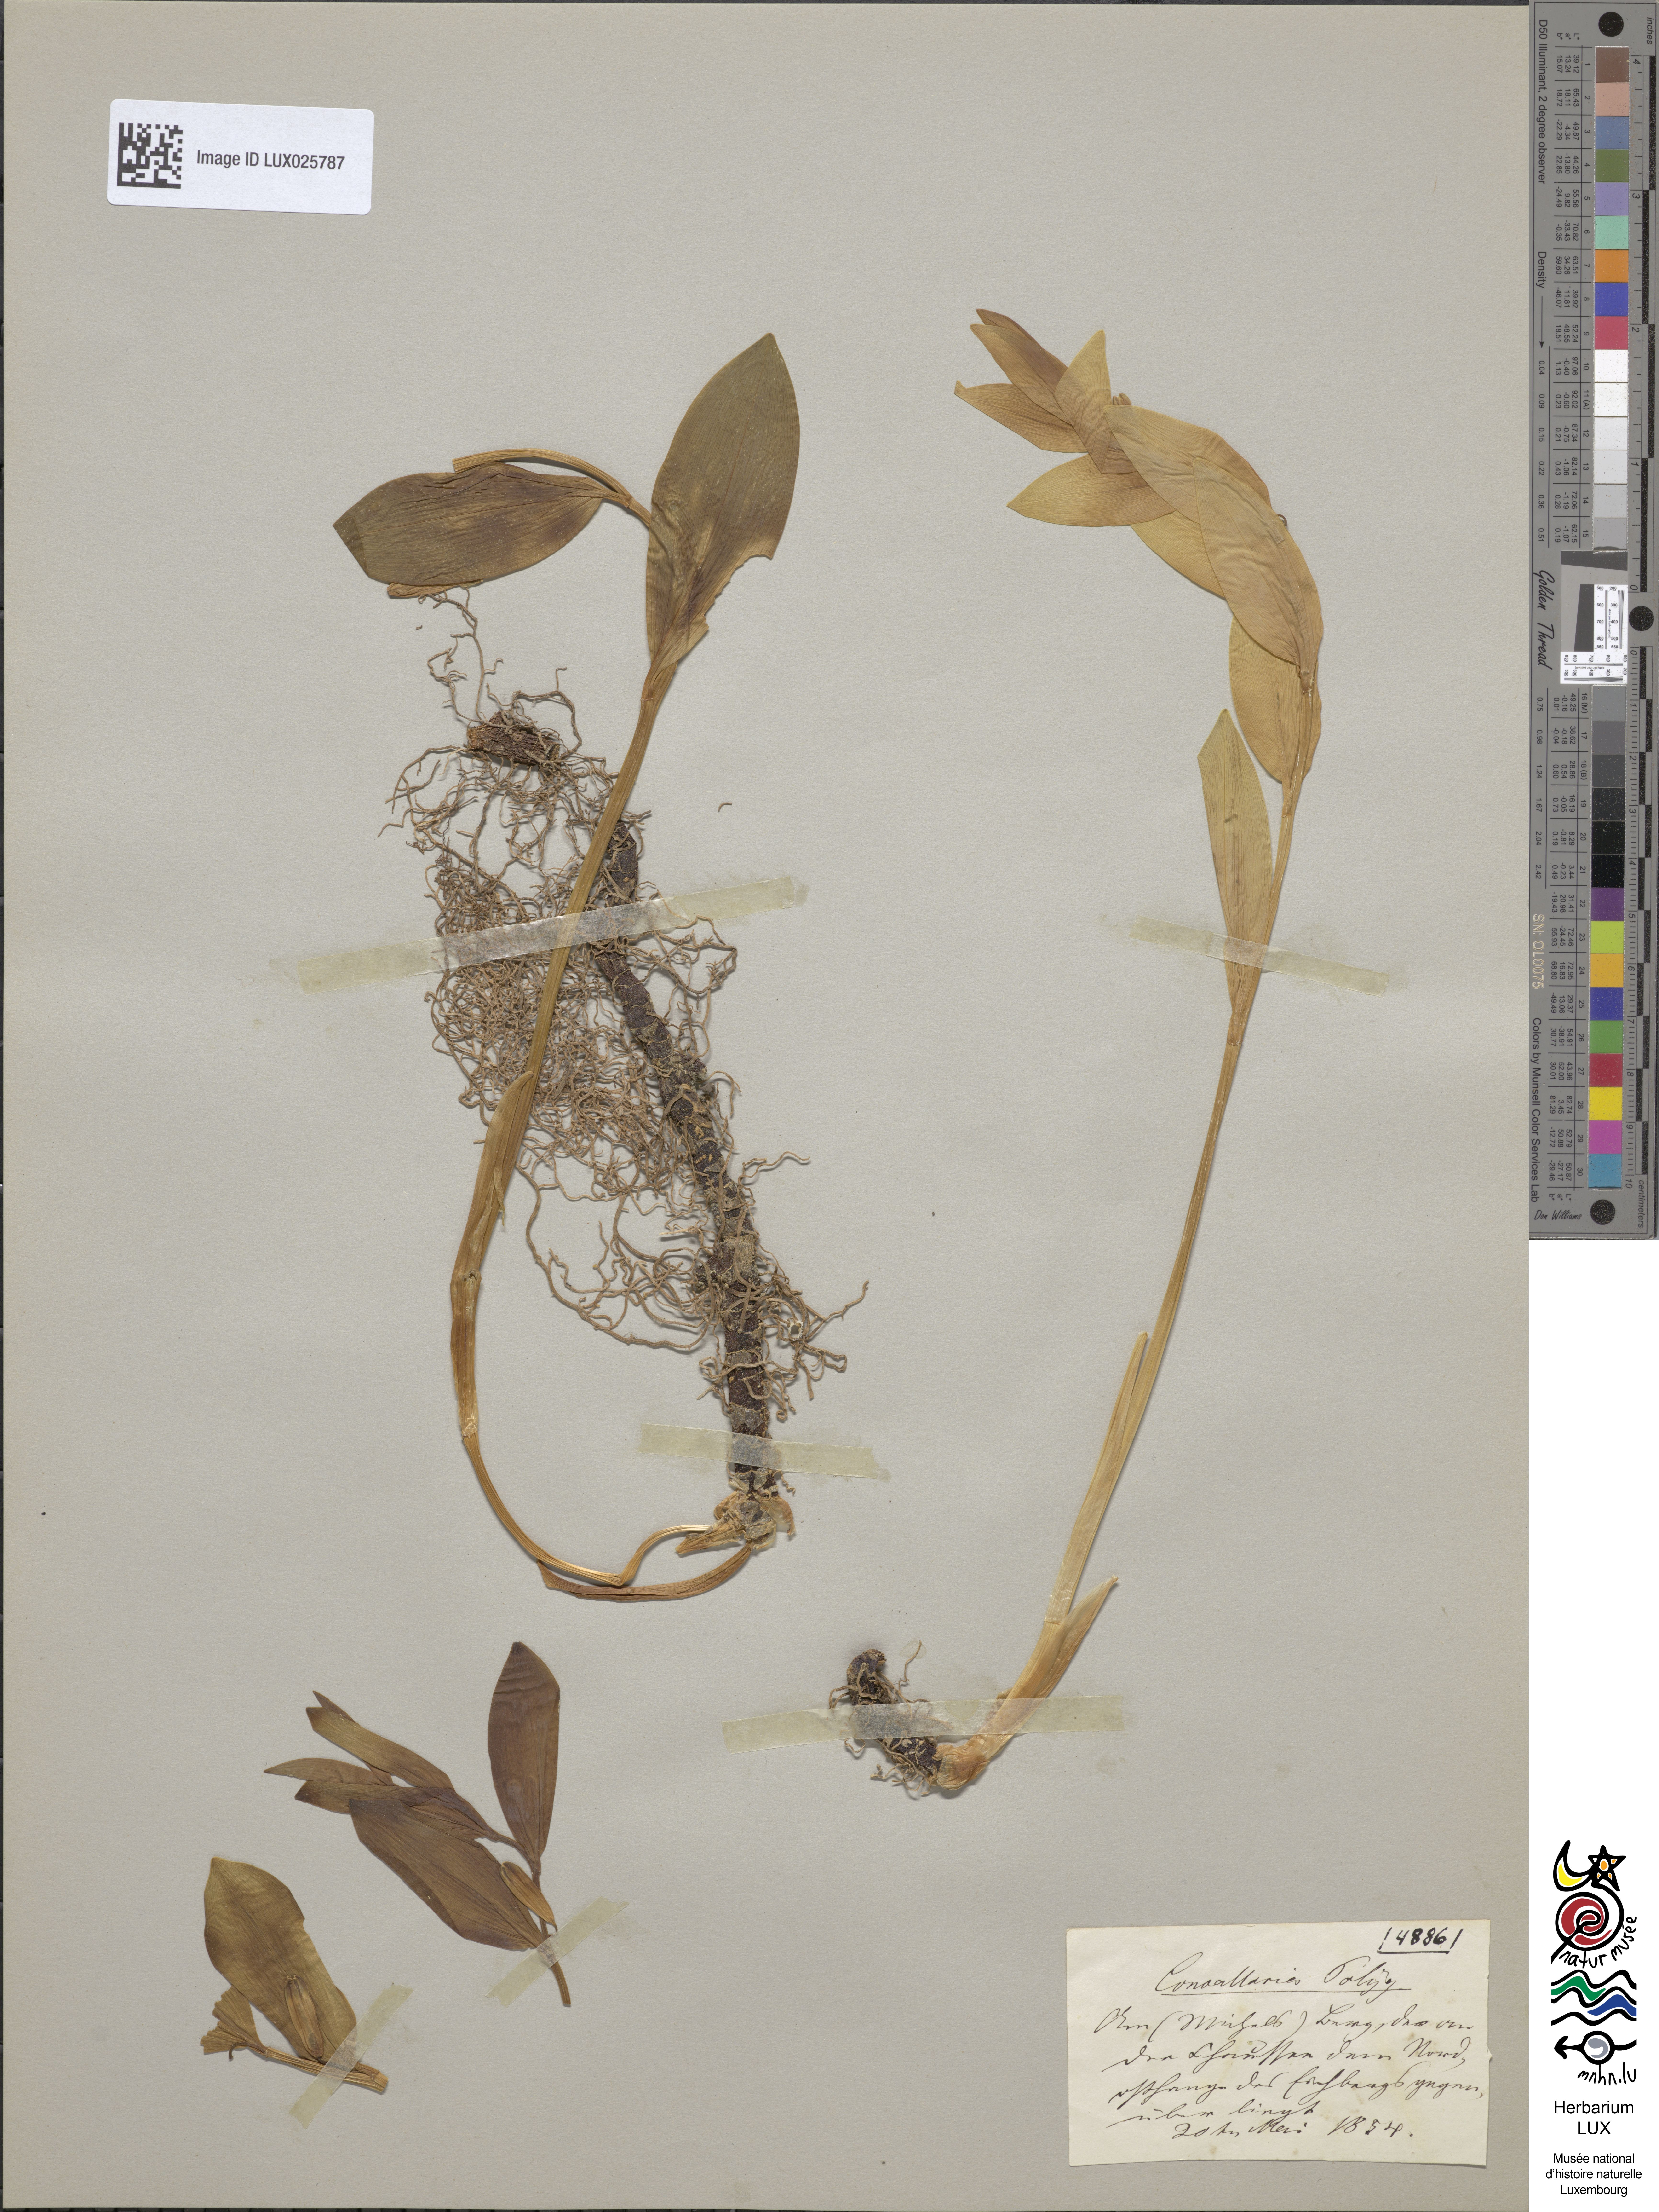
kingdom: Plantae
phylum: Tracheophyta
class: Liliopsida
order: Asparagales
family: Asparagaceae
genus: Polygonatum
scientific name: Polygonatum odoratum
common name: Angular solomon's-seal
